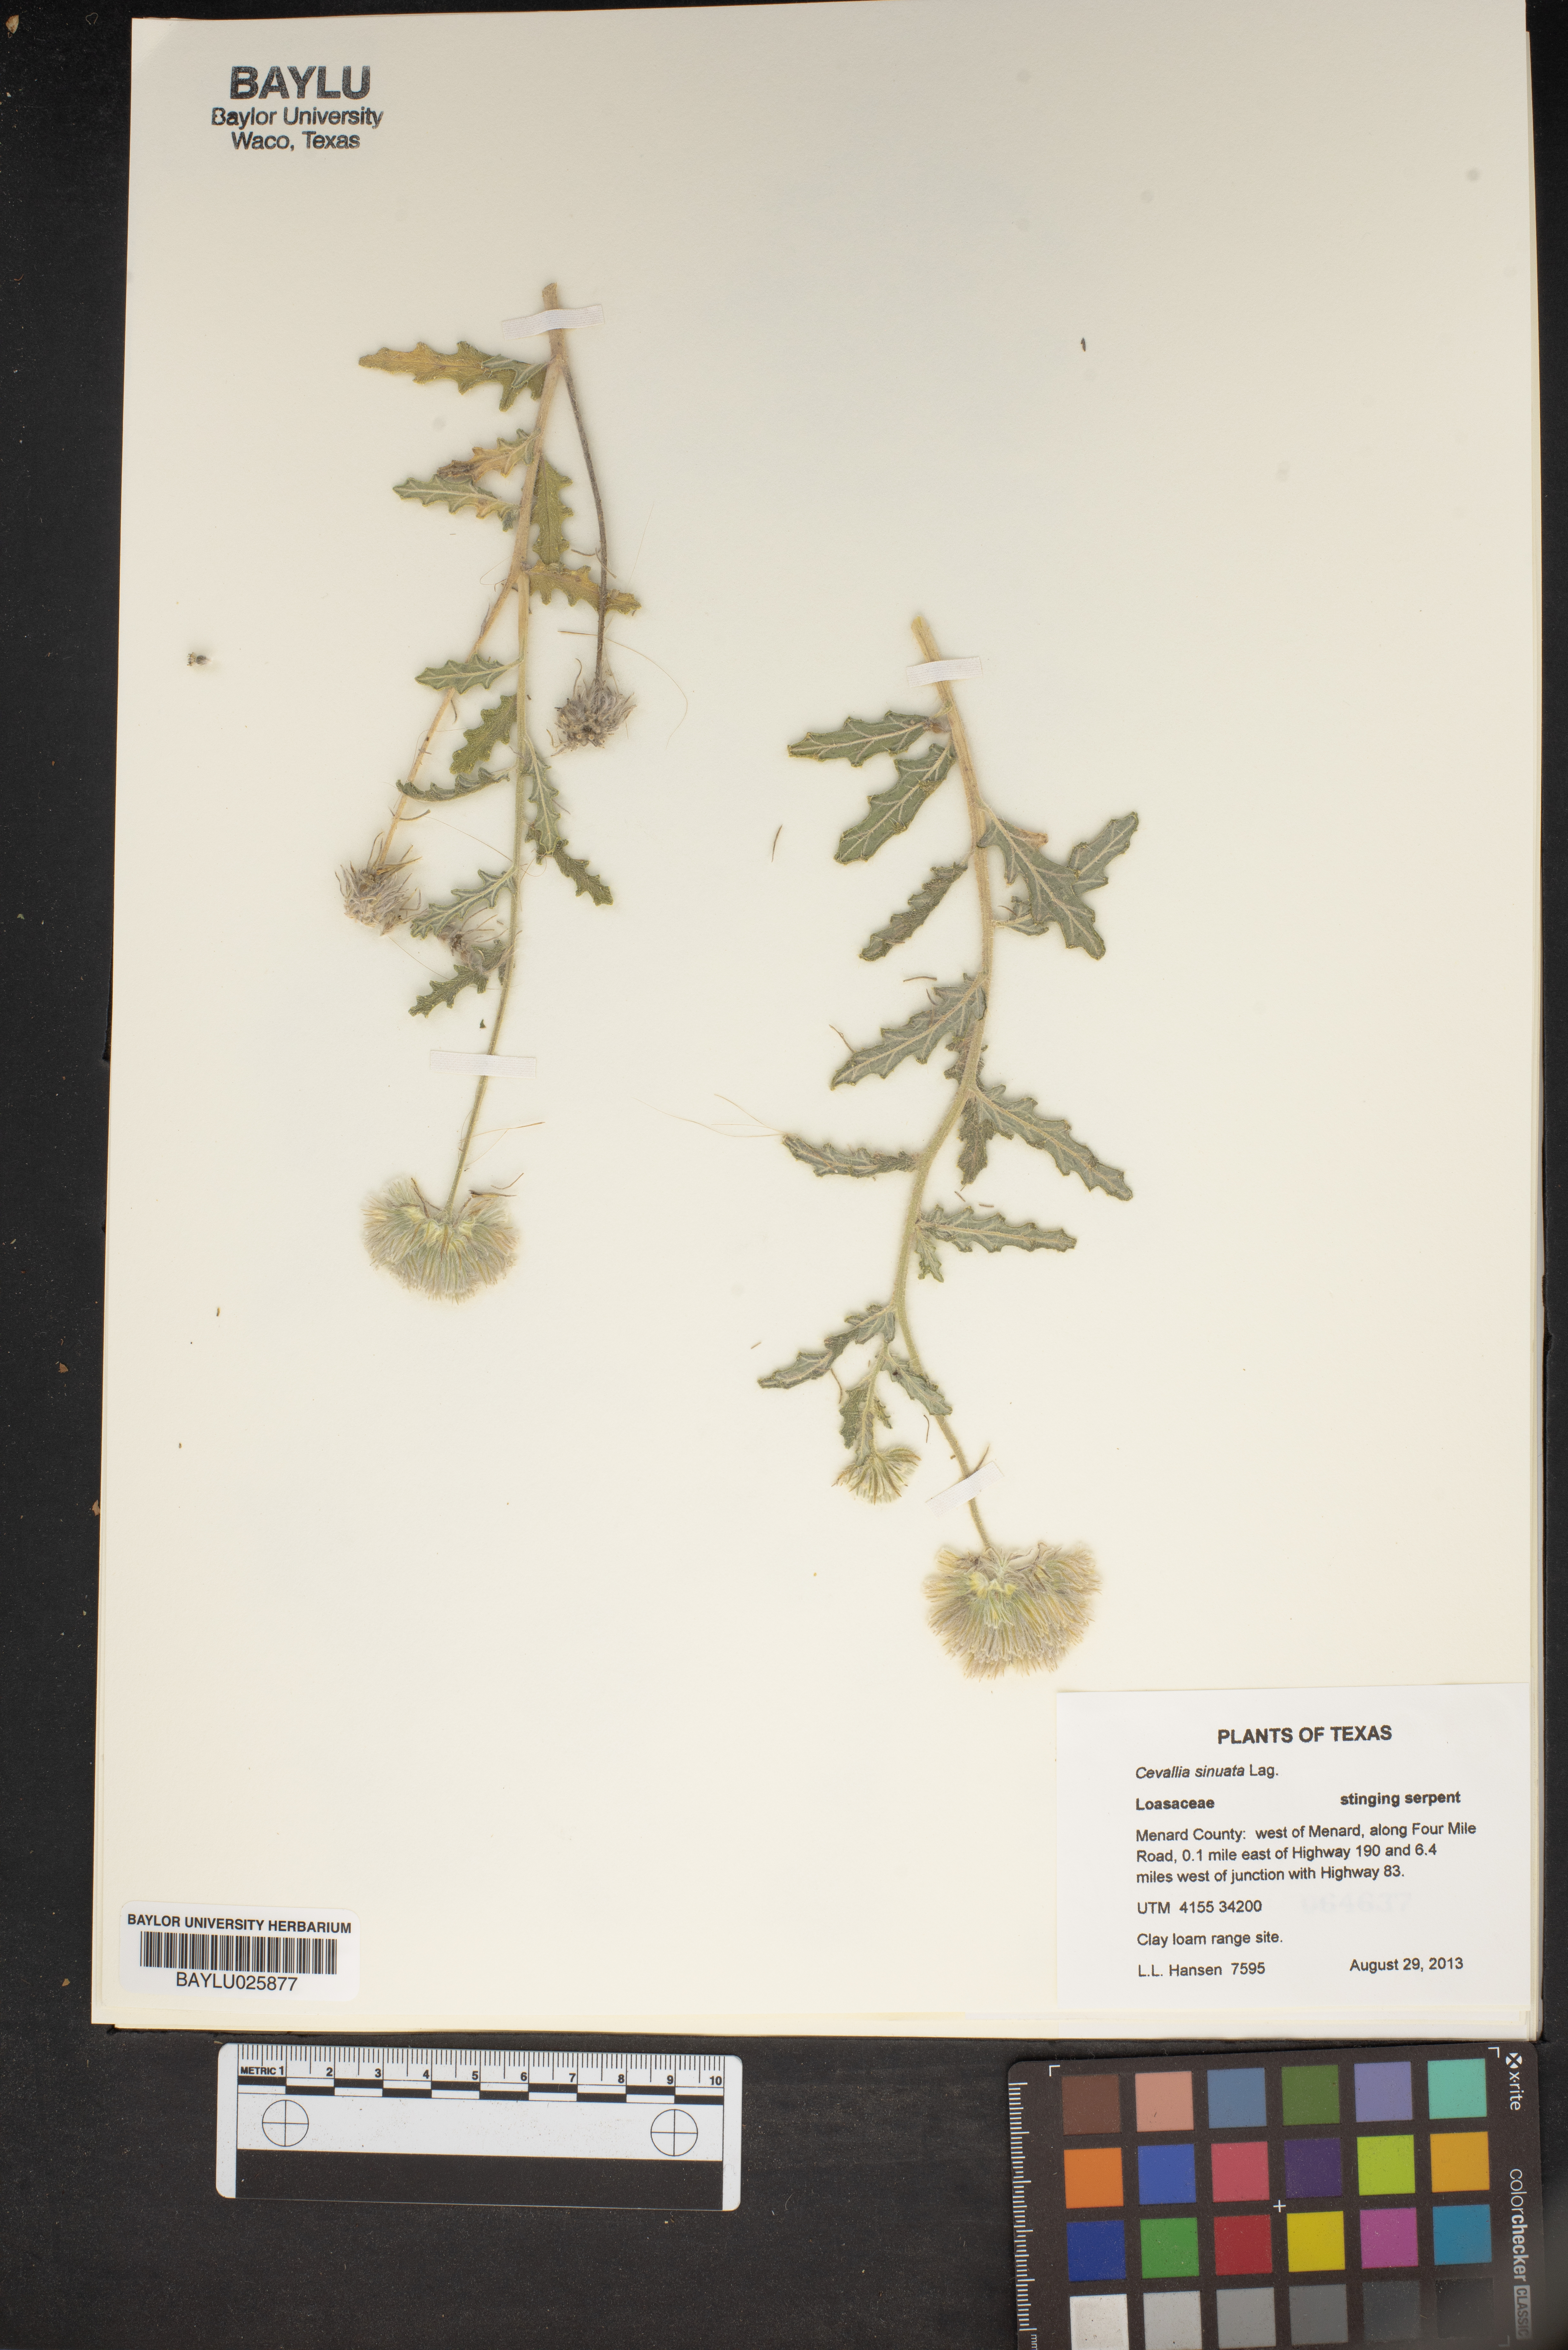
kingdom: Plantae
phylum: Tracheophyta
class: Magnoliopsida
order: Cornales
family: Loasaceae
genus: Cevallia
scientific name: Cevallia sinuata
